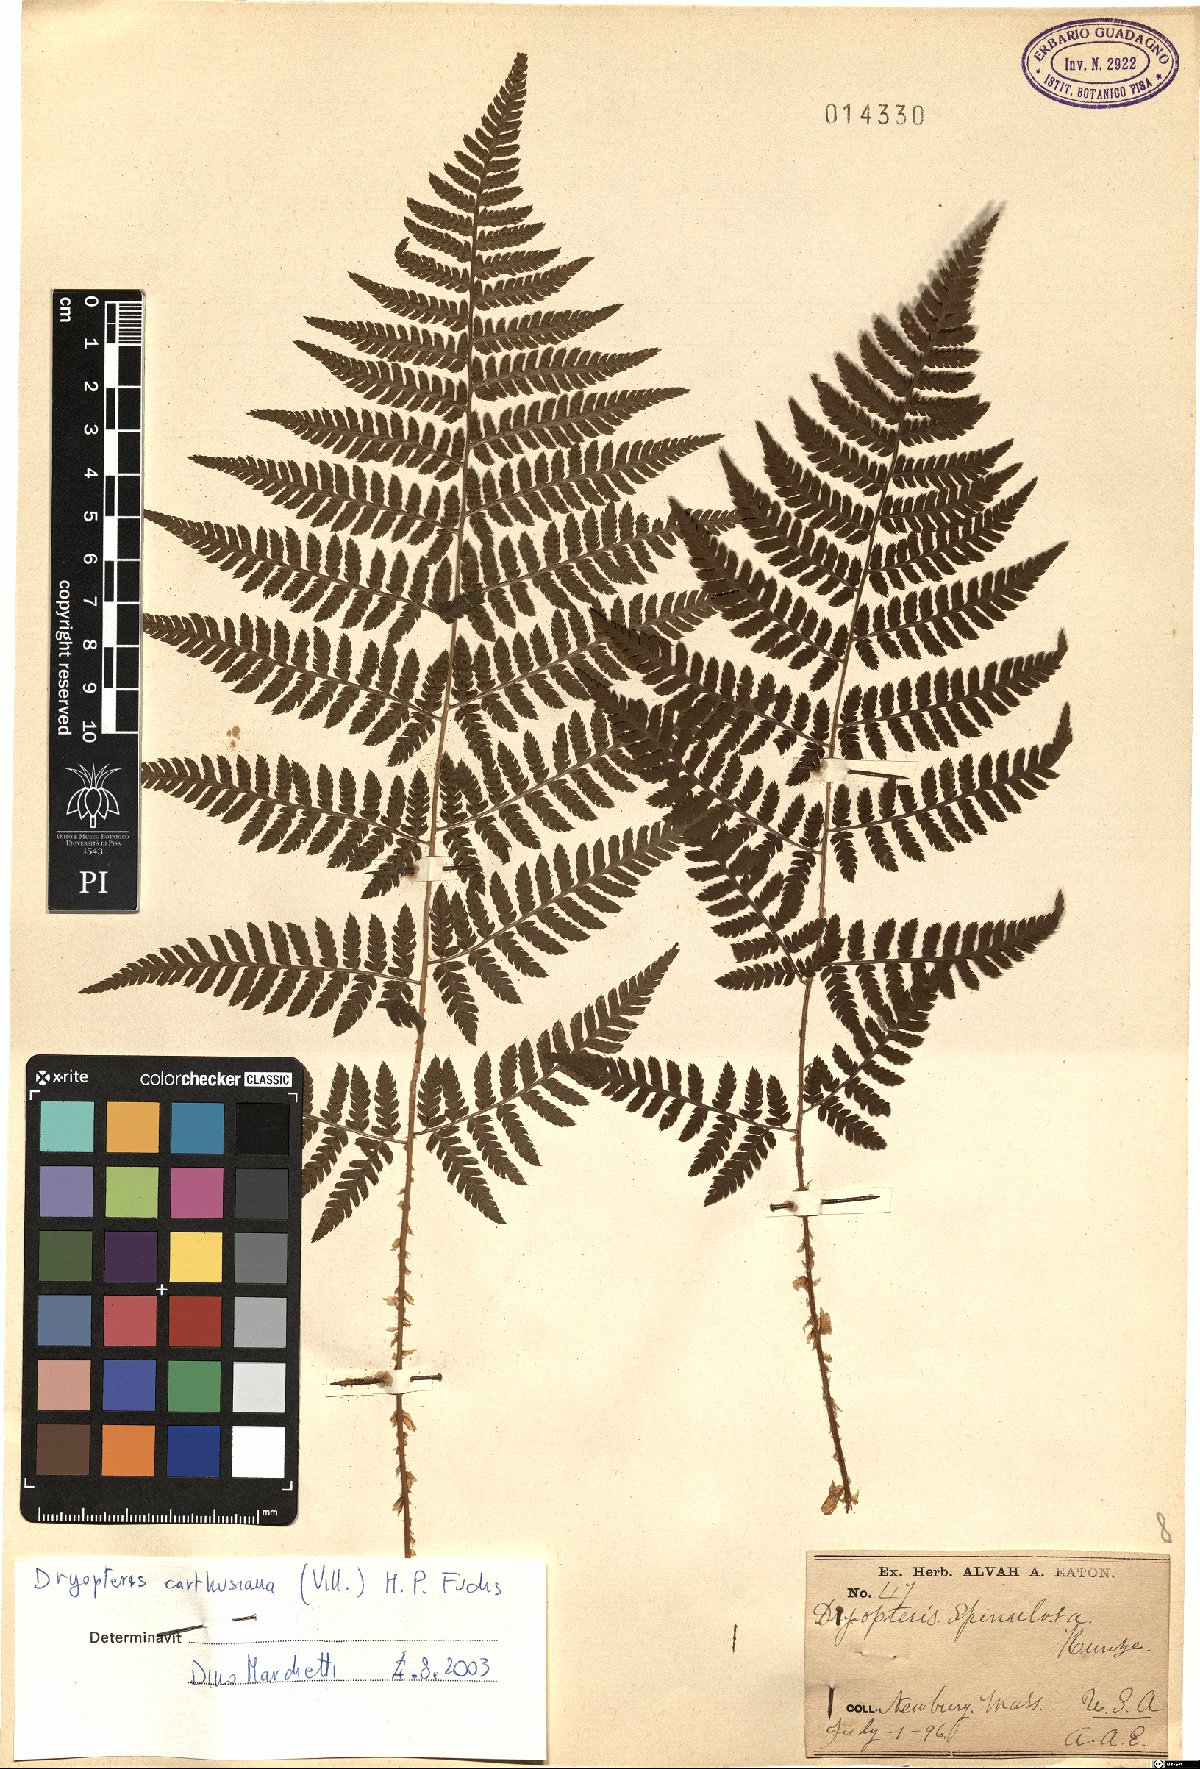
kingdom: Plantae
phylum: Tracheophyta
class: Polypodiopsida
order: Polypodiales
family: Dryopteridaceae
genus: Dryopteris
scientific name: Dryopteris carthusiana
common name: Narrow buckler-fern
